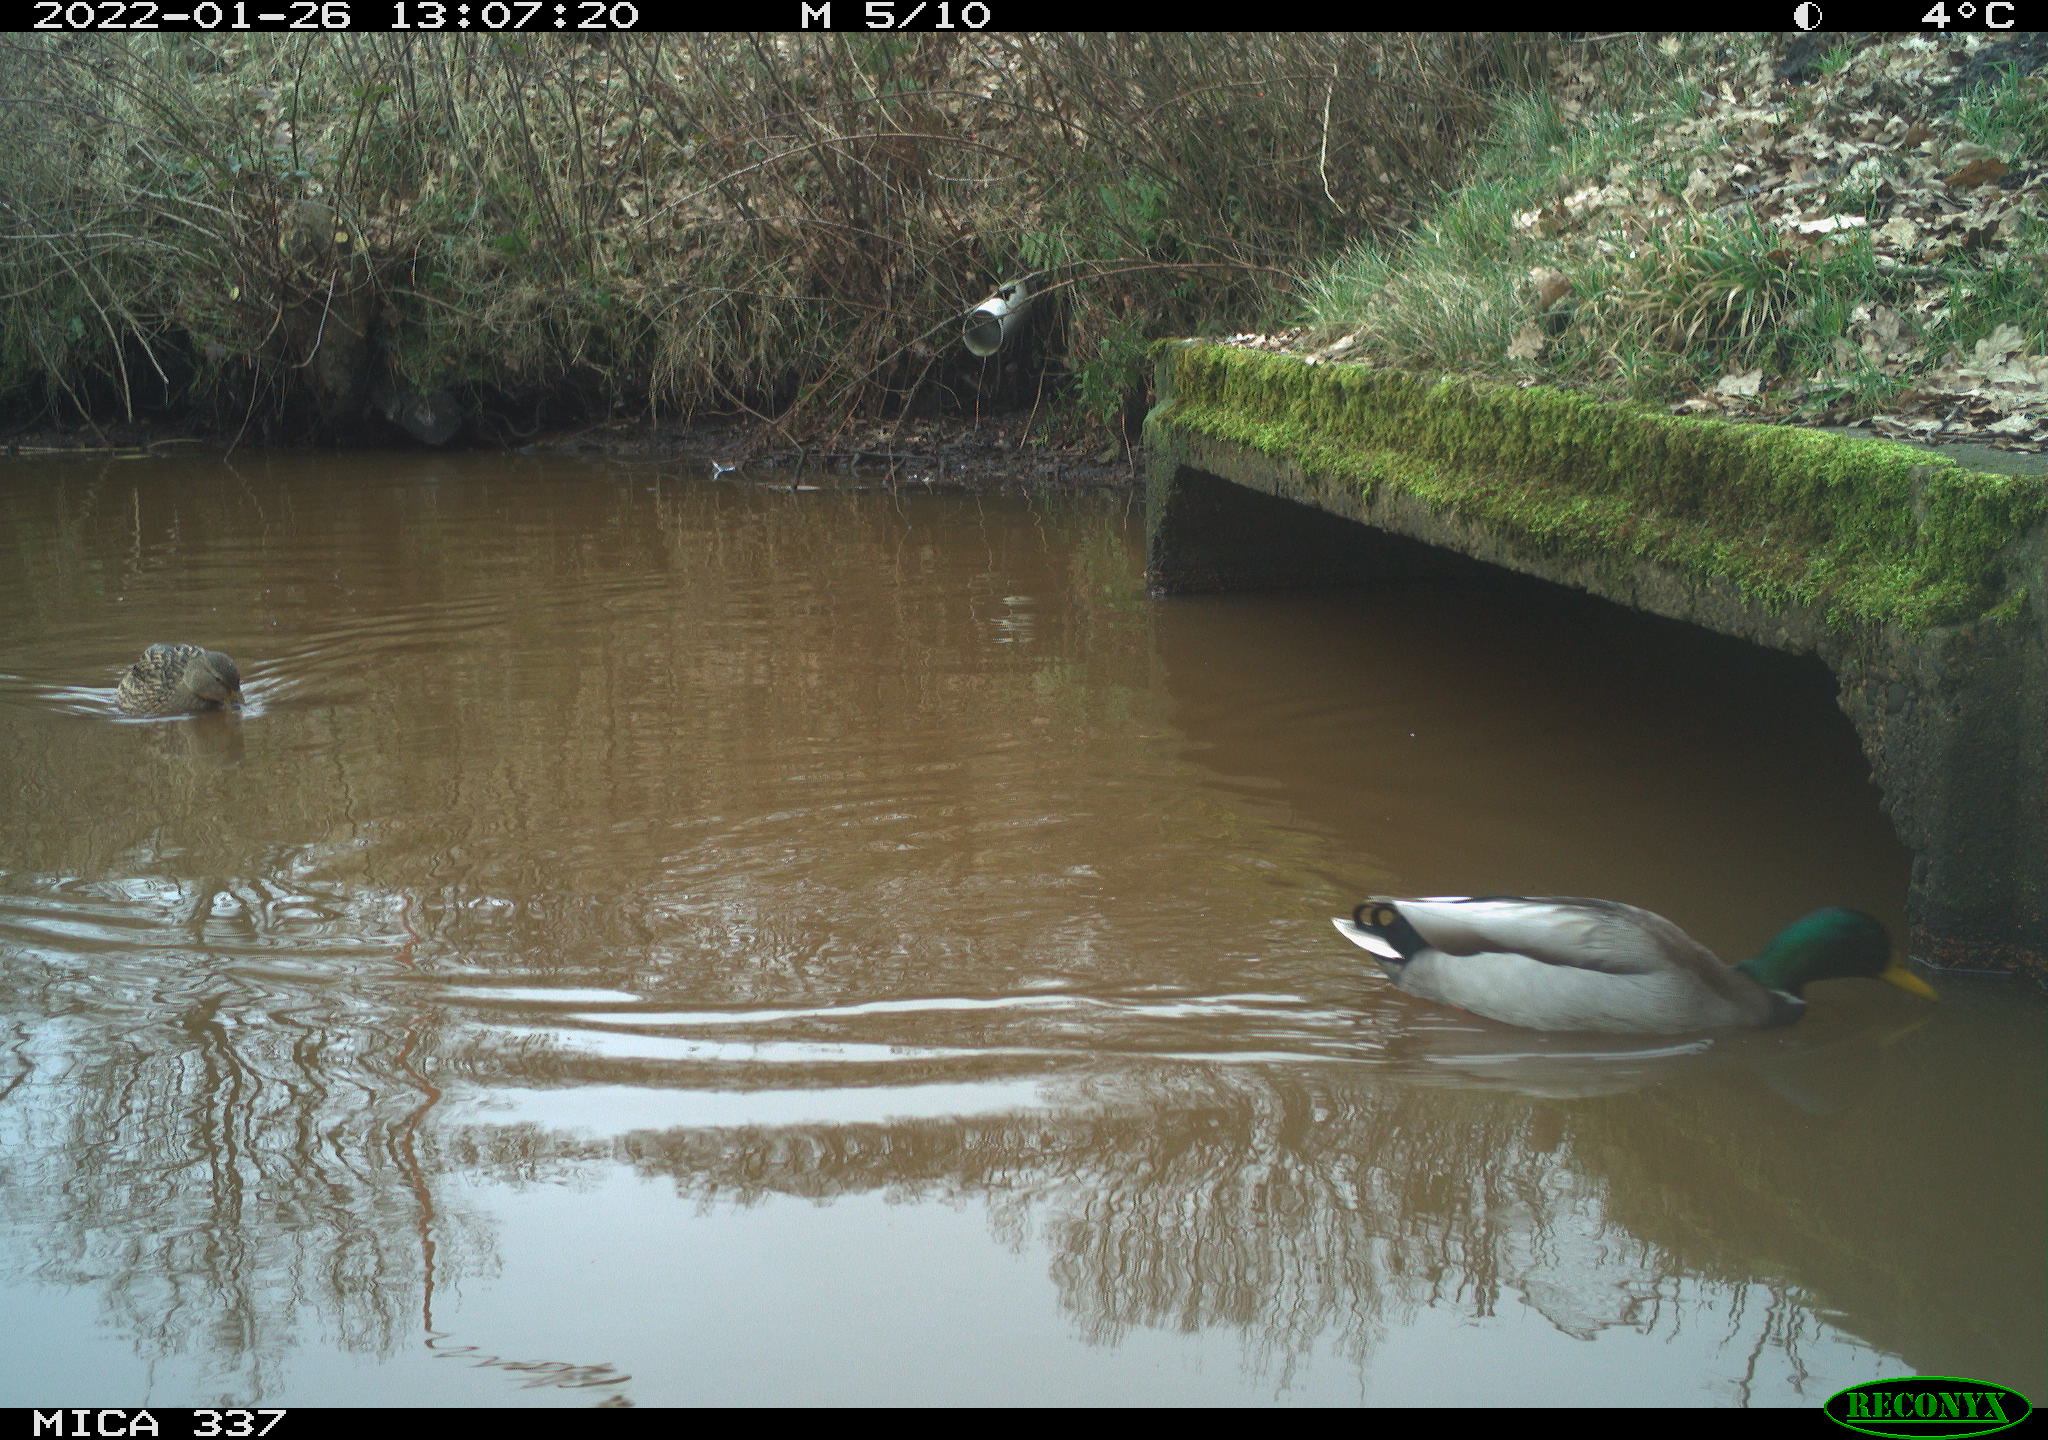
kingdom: Animalia
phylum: Chordata
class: Aves
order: Anseriformes
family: Anatidae
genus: Anas
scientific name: Anas platyrhynchos
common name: Mallard
